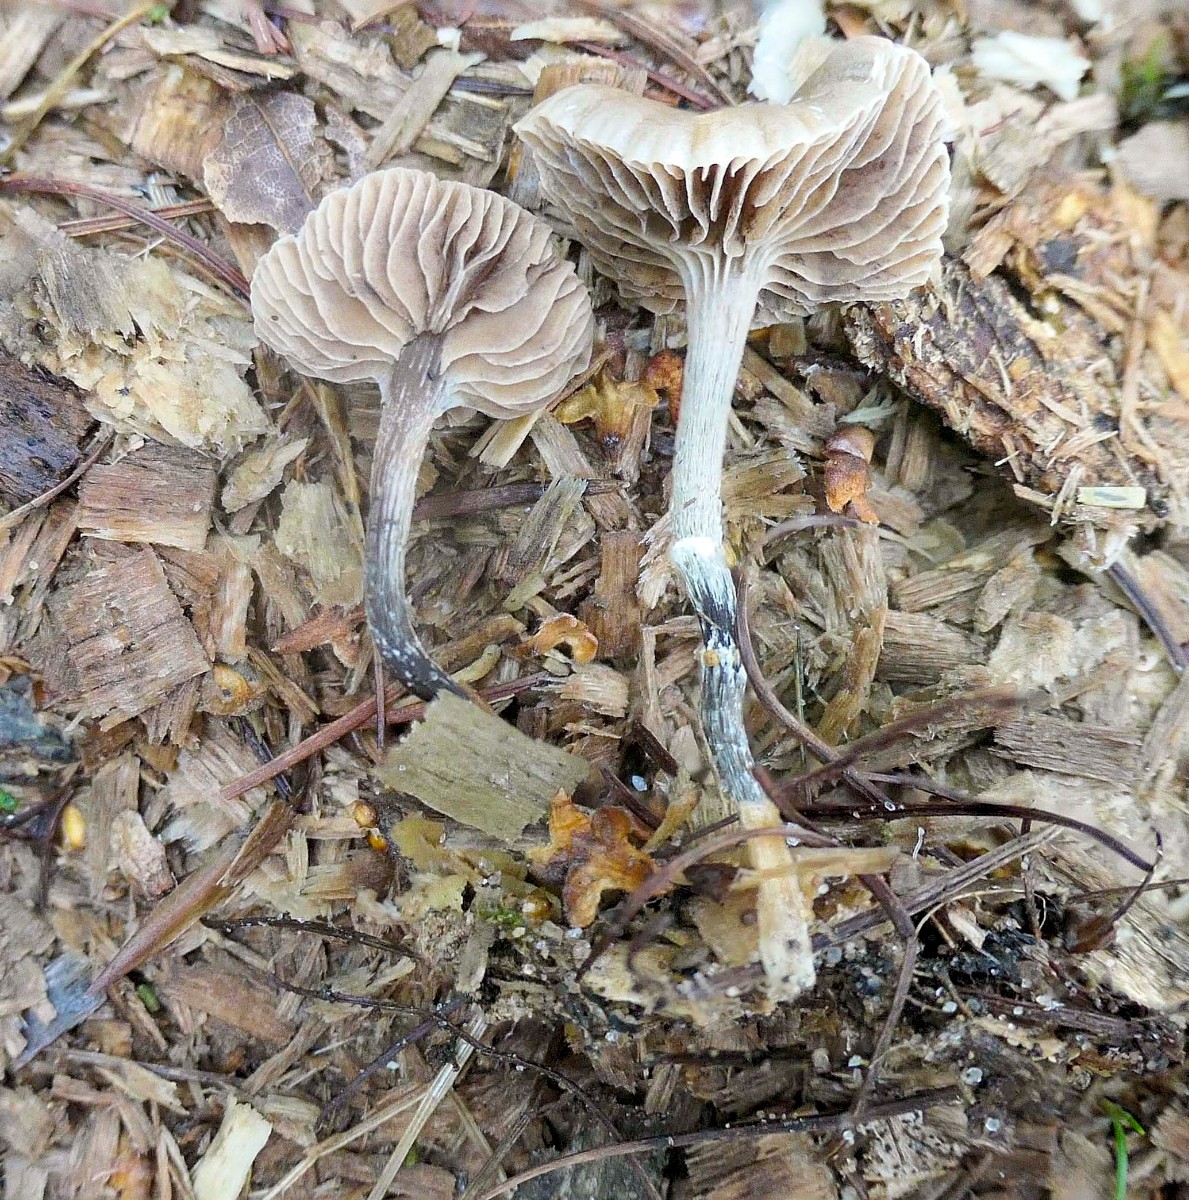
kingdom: Fungi
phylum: Basidiomycota
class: Agaricomycetes
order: Agaricales
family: Strophariaceae
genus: Deconica
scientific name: Deconica
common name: stråhat
